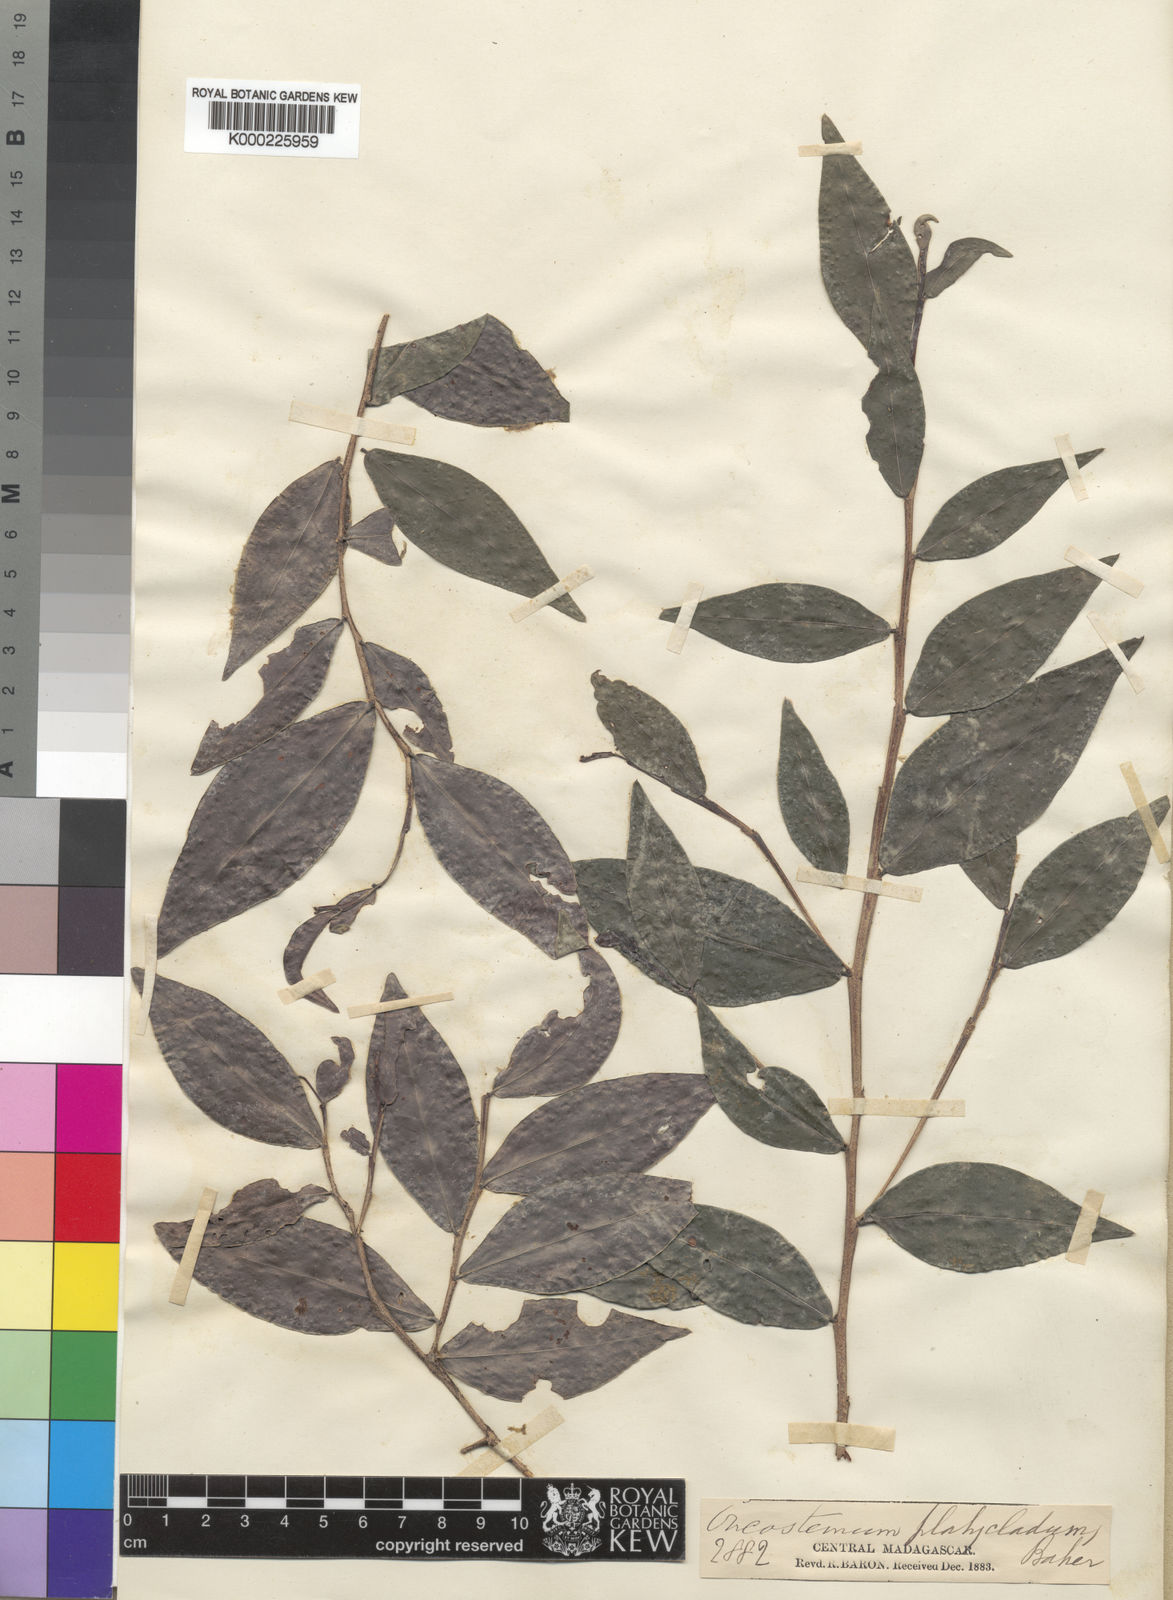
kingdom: Plantae
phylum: Tracheophyta
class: Magnoliopsida
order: Ericales
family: Primulaceae
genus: Oncostemum
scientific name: Oncostemum platycladum
